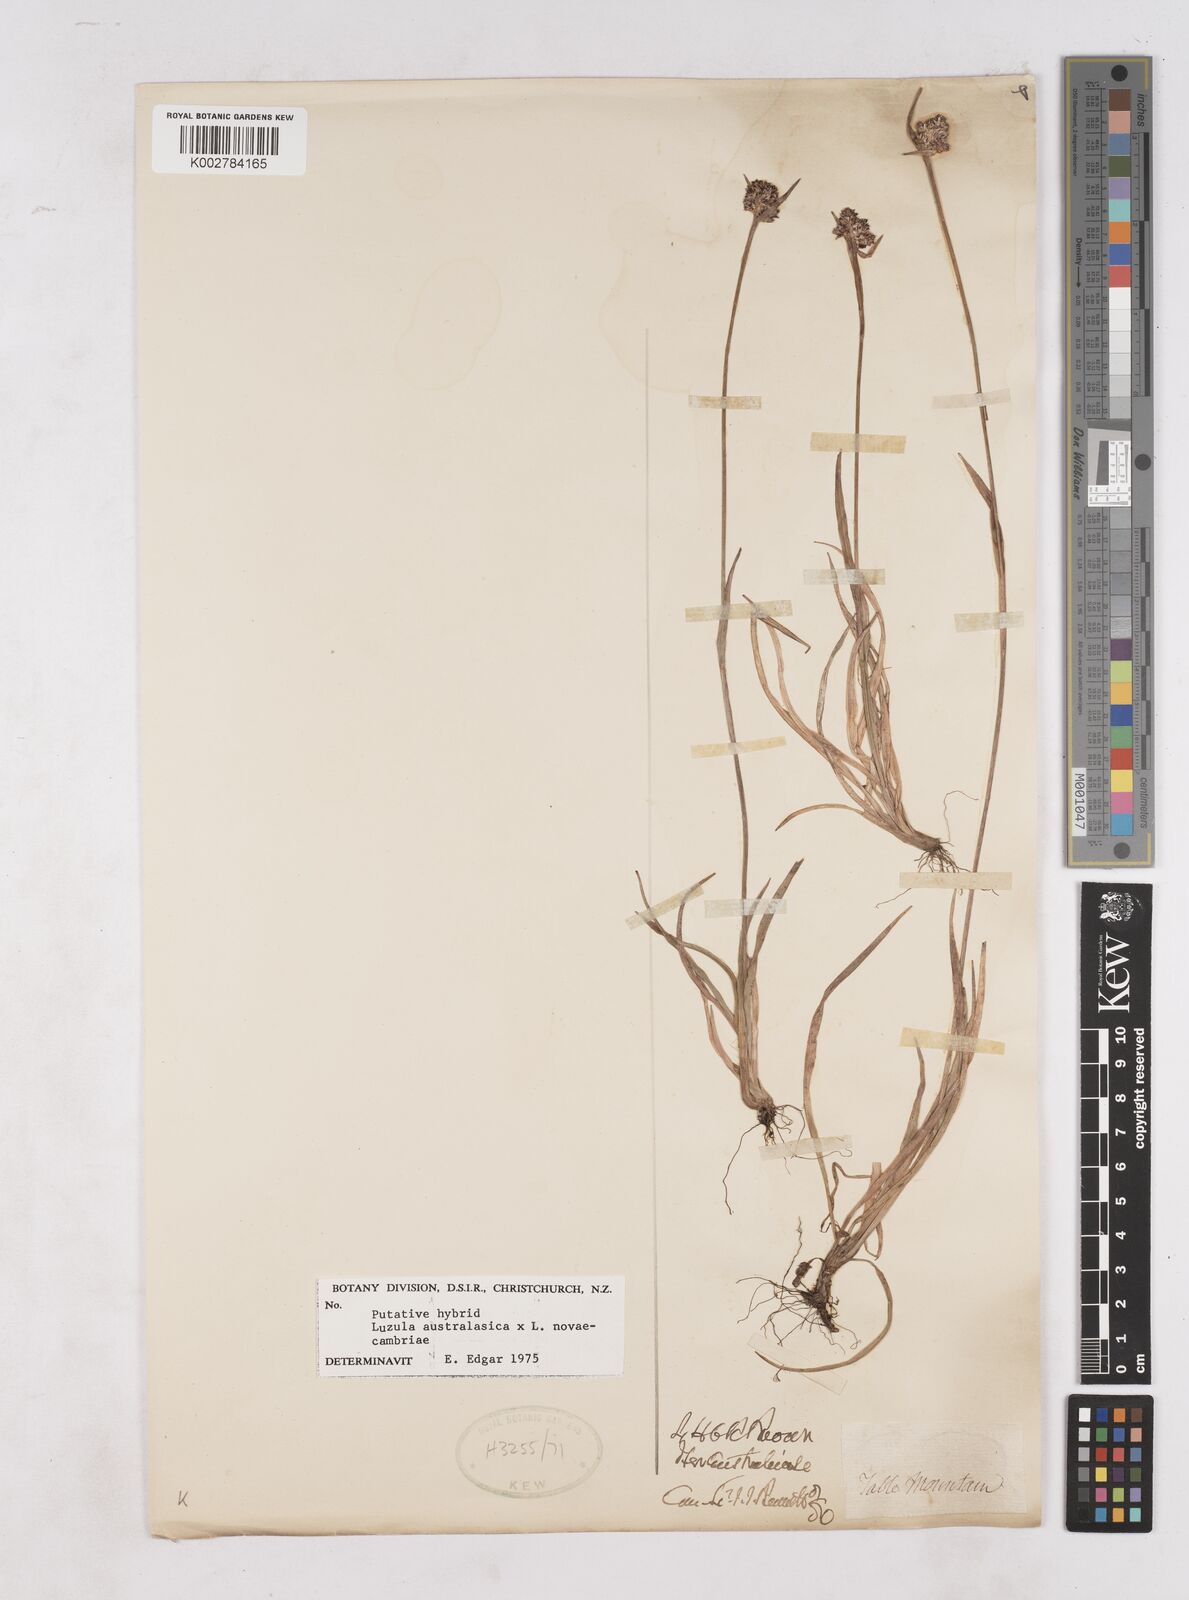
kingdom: Plantae
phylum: Tracheophyta
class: Liliopsida
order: Poales
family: Juncaceae
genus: Luzula
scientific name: Luzula australasica
